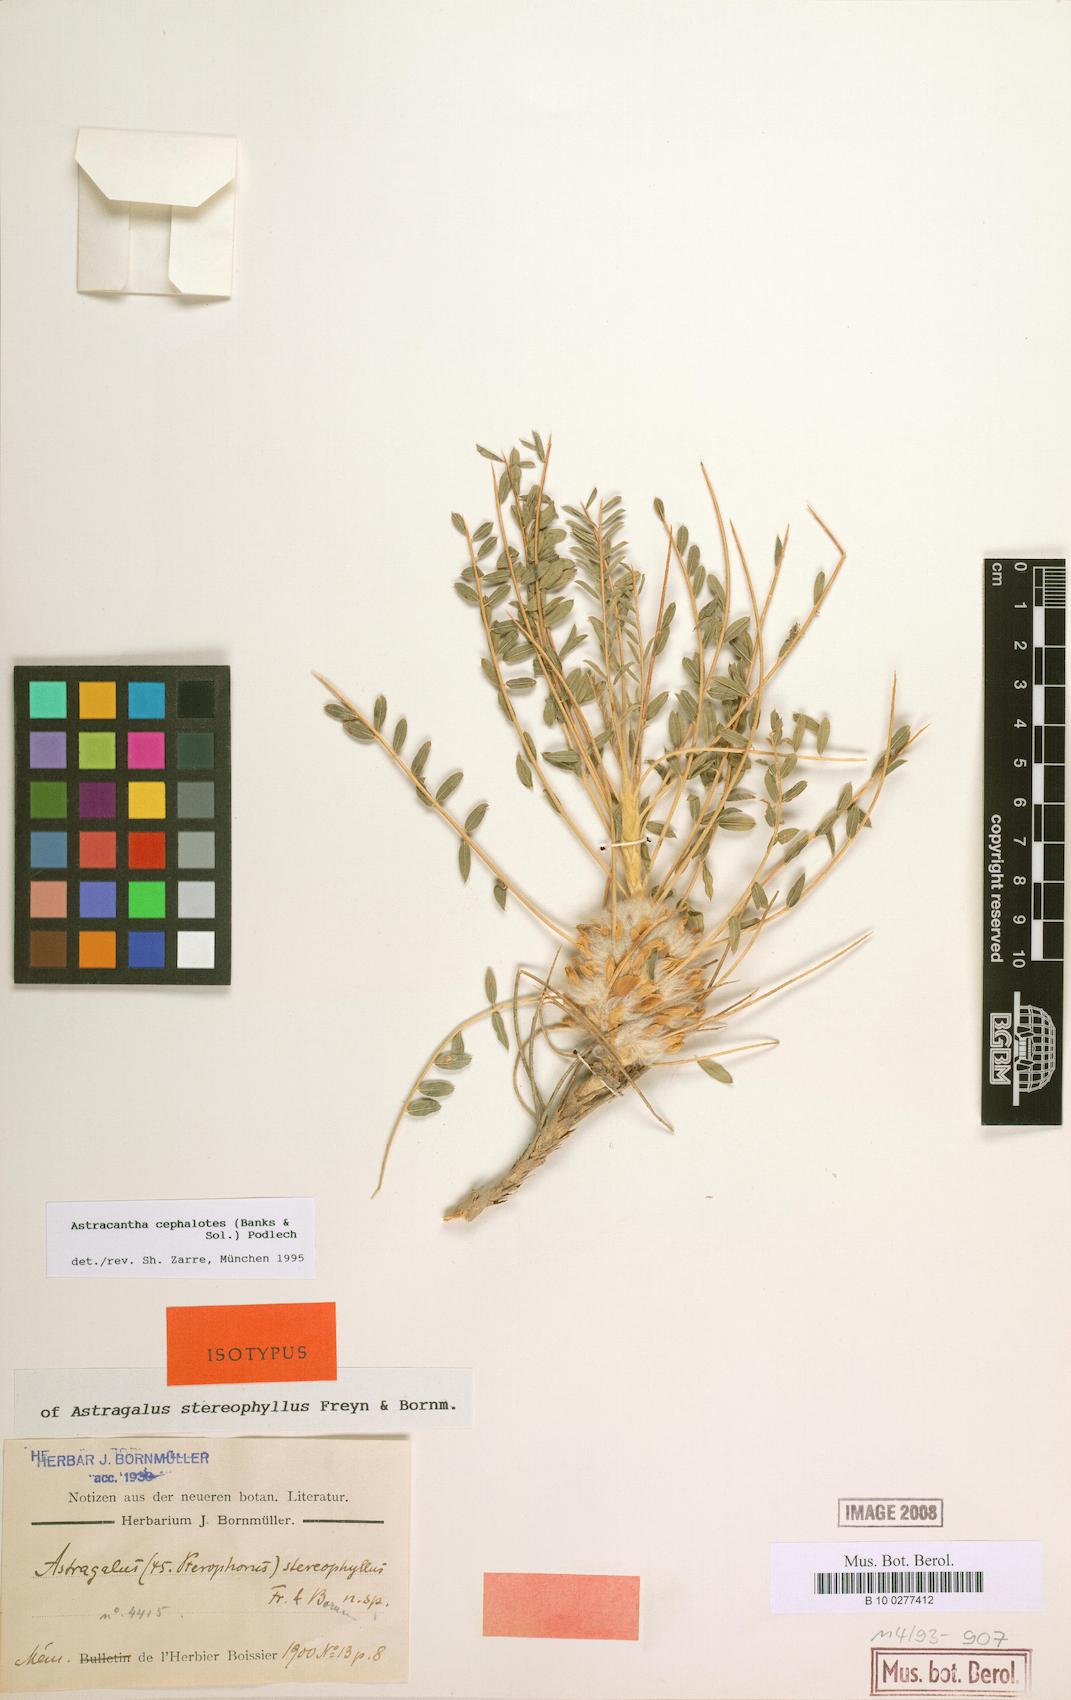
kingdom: Plantae
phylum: Tracheophyta
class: Magnoliopsida
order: Fabales
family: Fabaceae
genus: Astragalus
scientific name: Astragalus cephalotes
